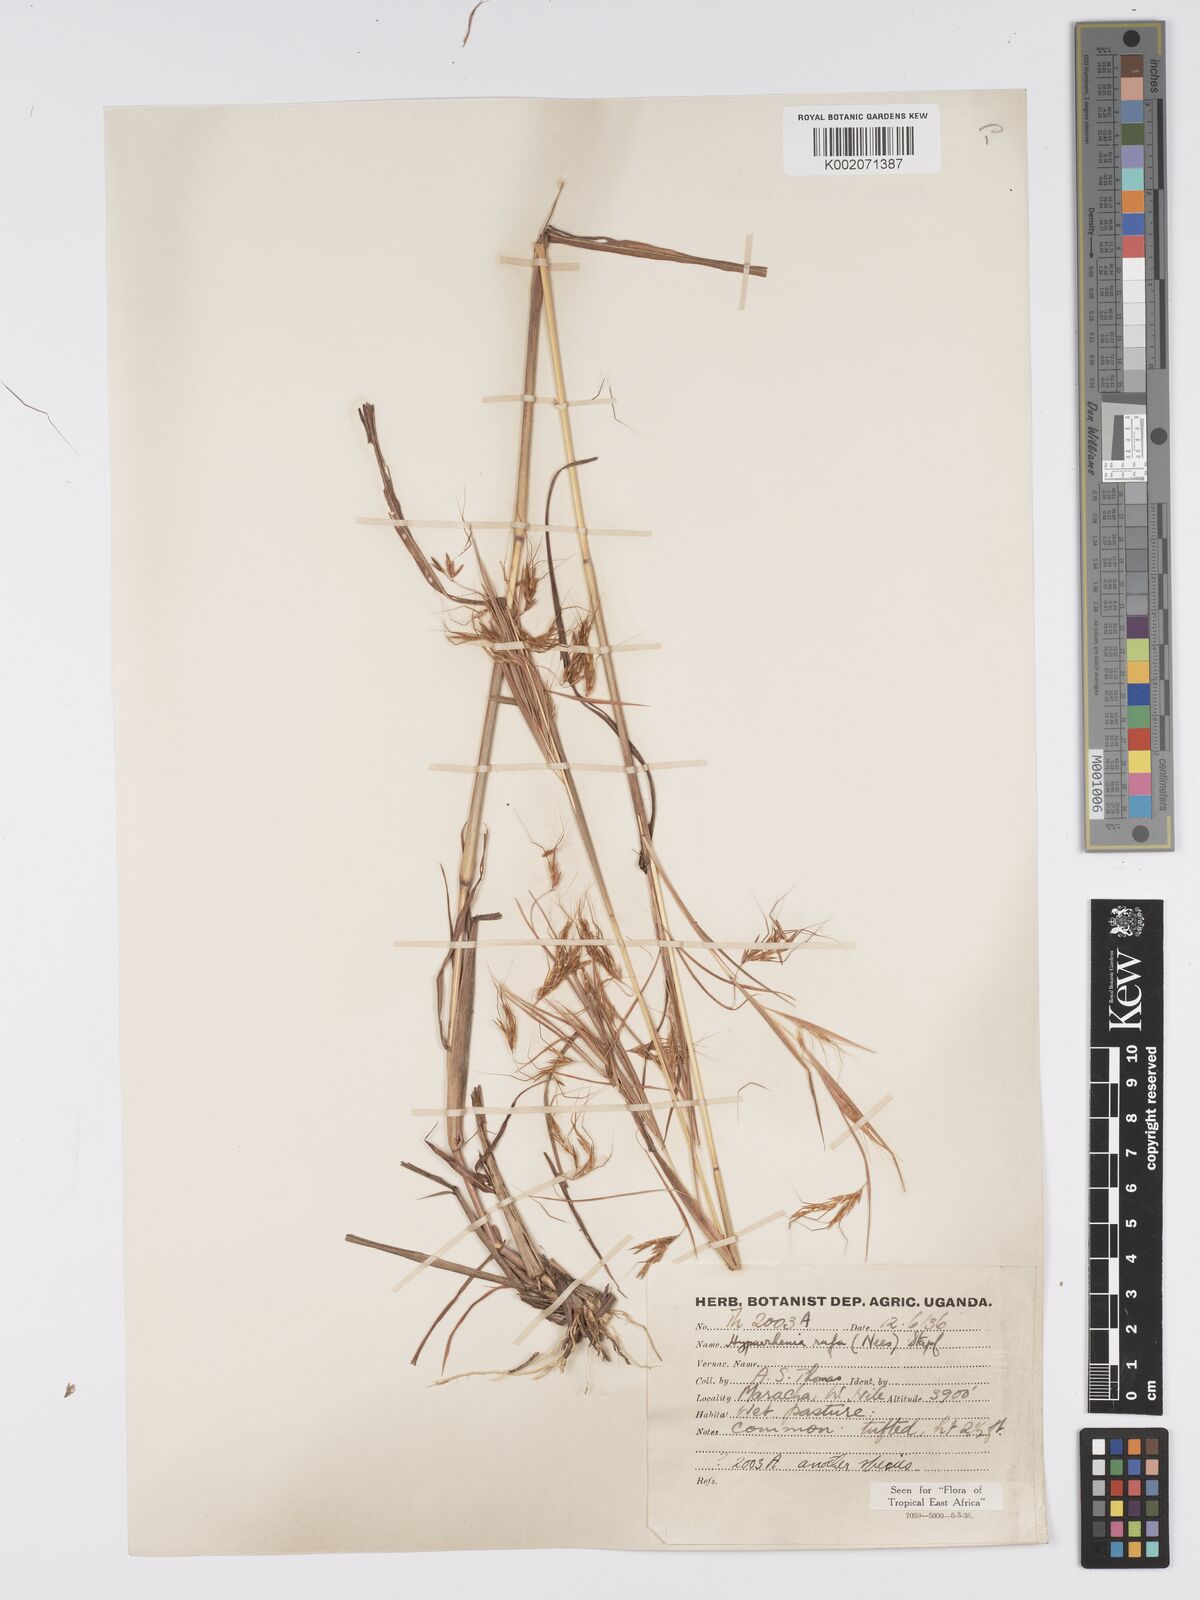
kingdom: Plantae
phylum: Tracheophyta
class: Liliopsida
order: Poales
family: Poaceae
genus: Hyparrhenia
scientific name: Hyparrhenia rufa
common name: Jaraguagrass
